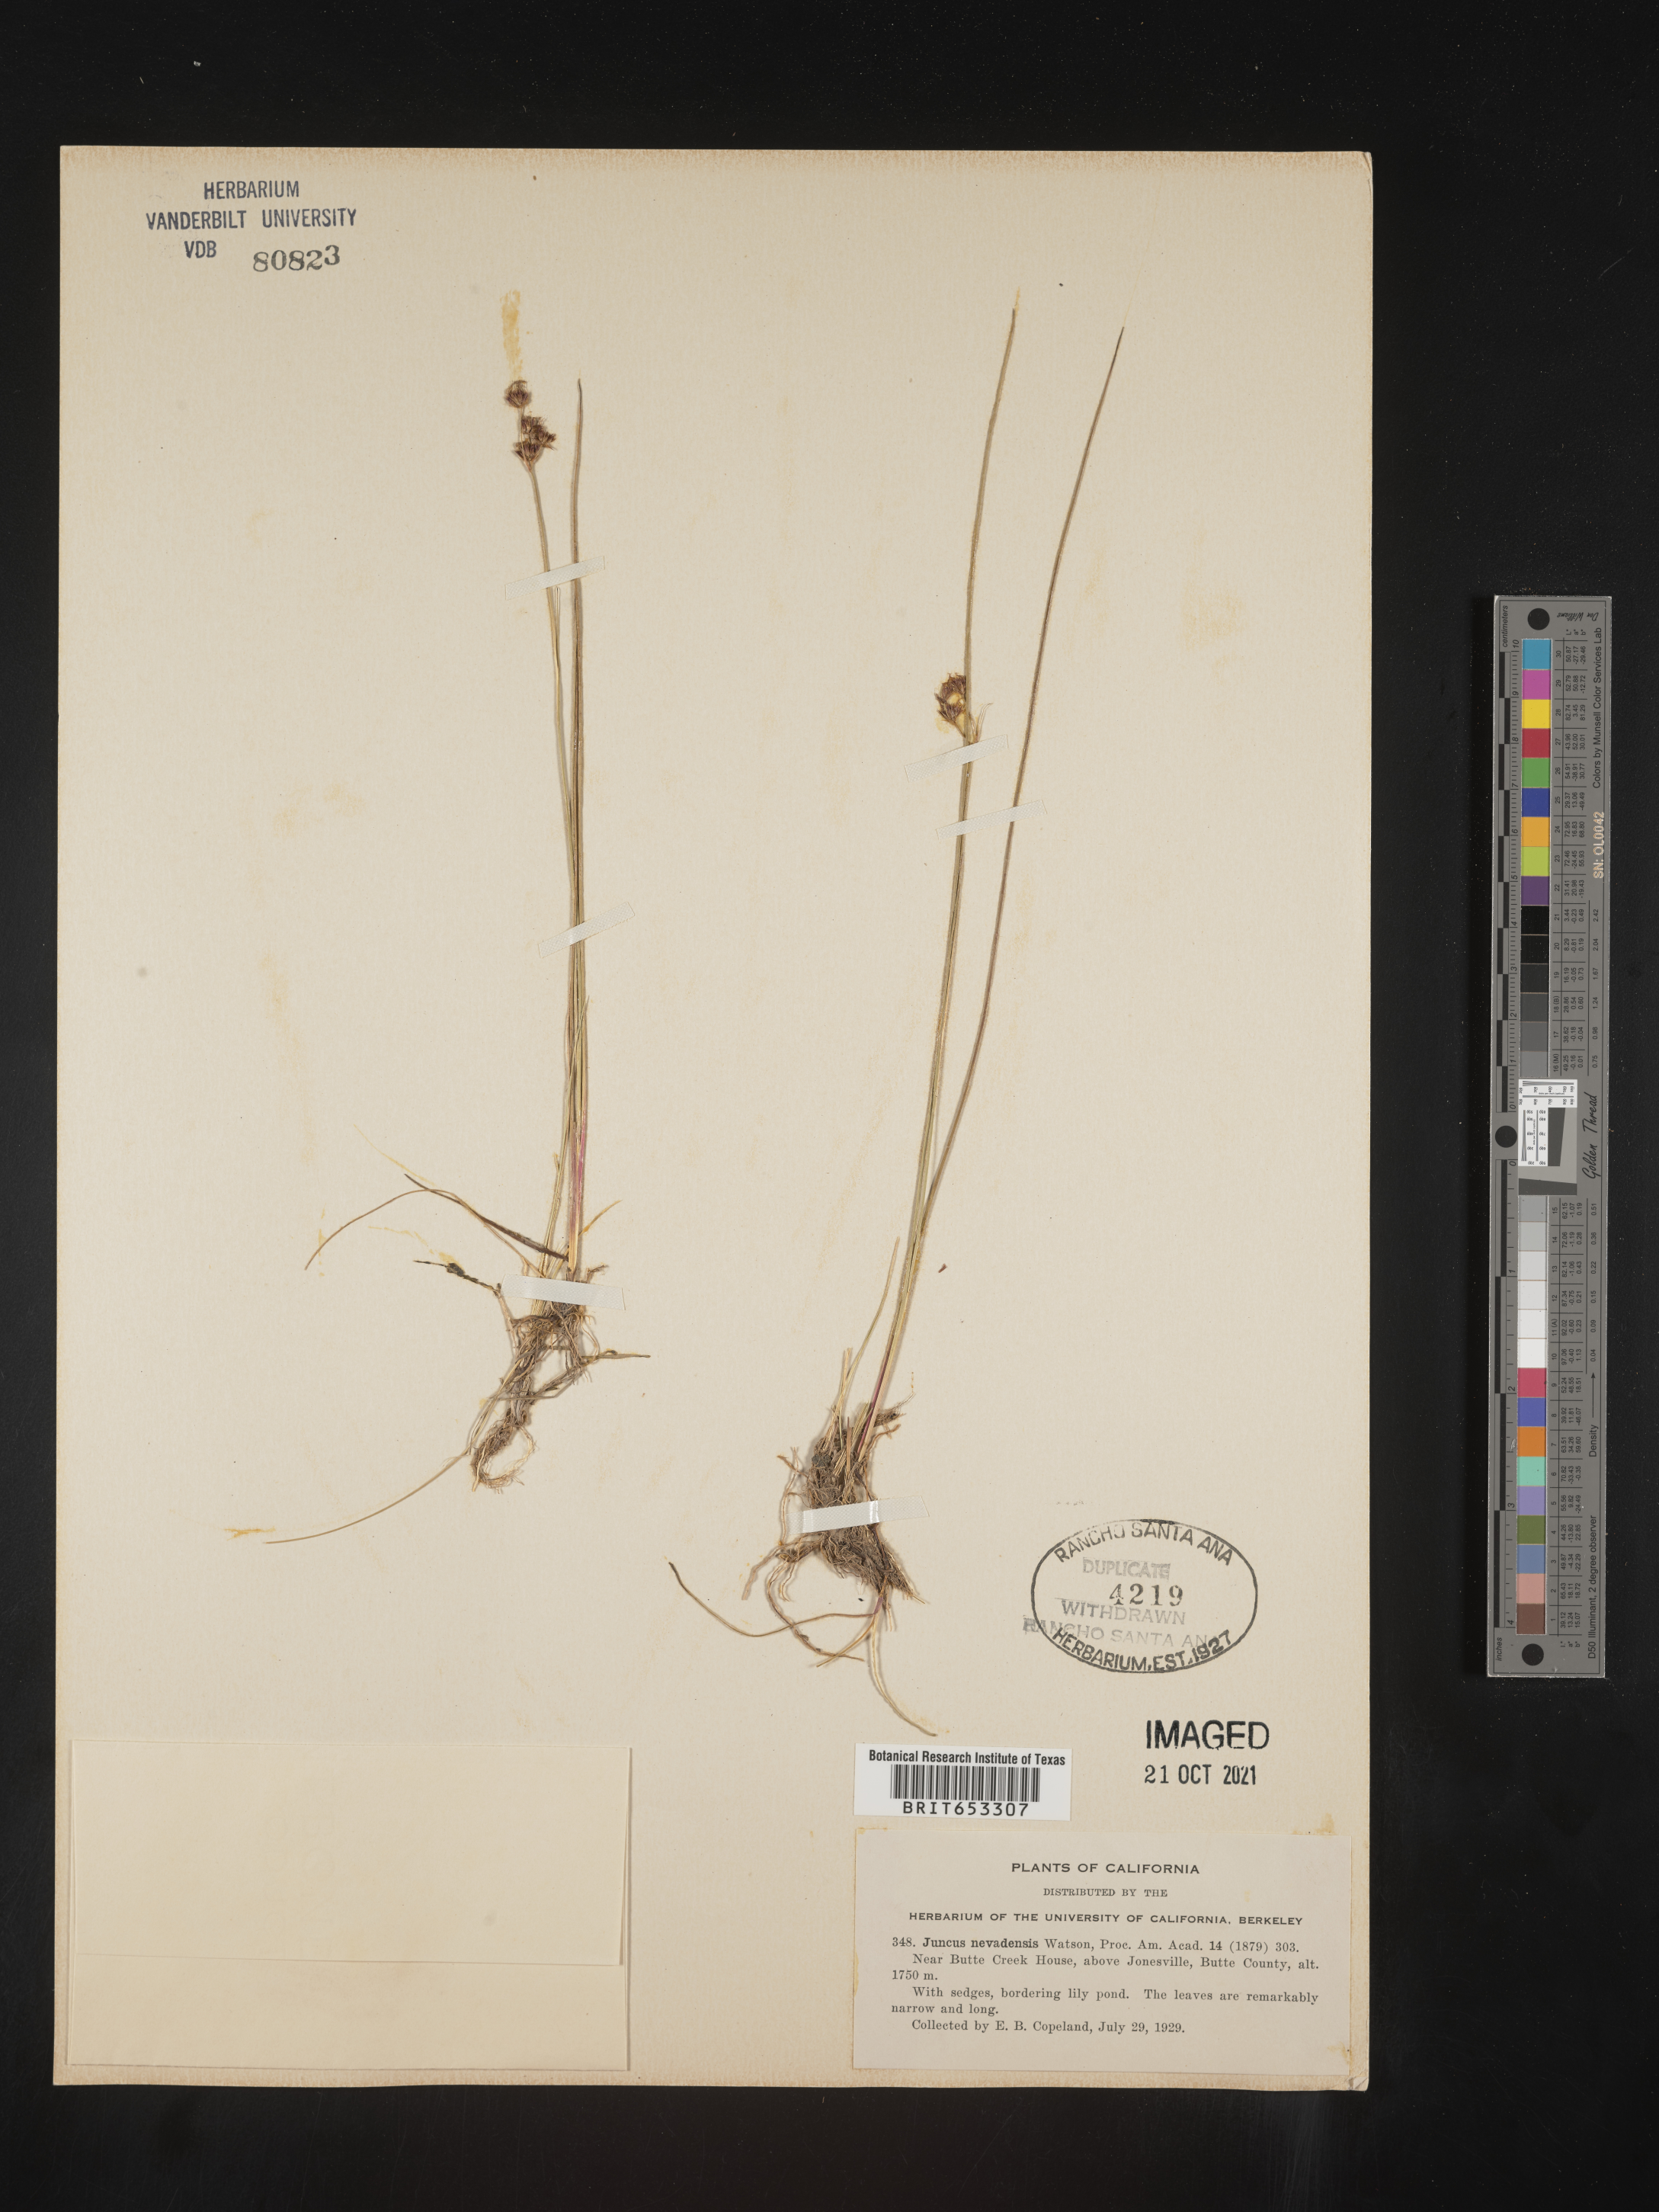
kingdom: Plantae
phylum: Tracheophyta
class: Liliopsida
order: Poales
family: Juncaceae
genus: Juncus
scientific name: Juncus nevadensis
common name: Nevada rush
